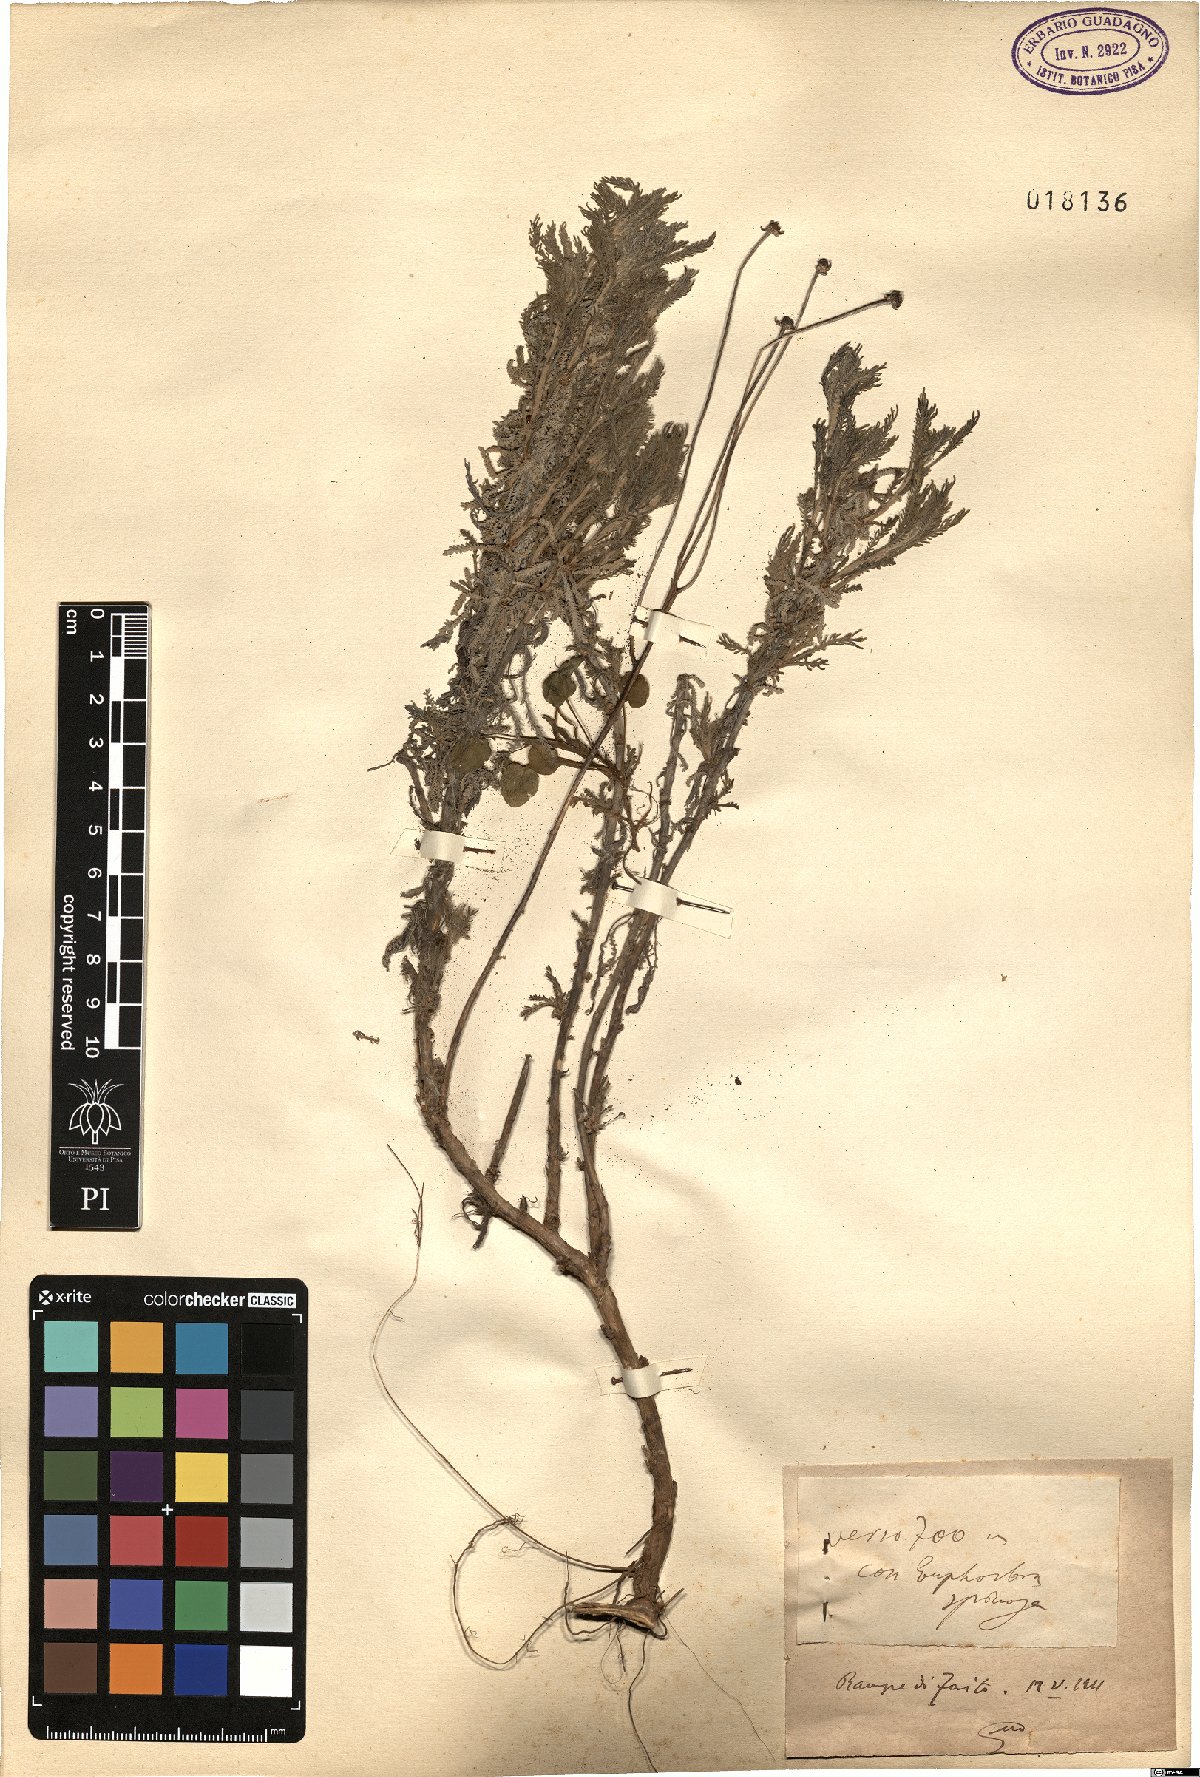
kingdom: Plantae
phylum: Tracheophyta
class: Magnoliopsida
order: Asterales
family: Asteraceae
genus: Santolina
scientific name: Santolina
